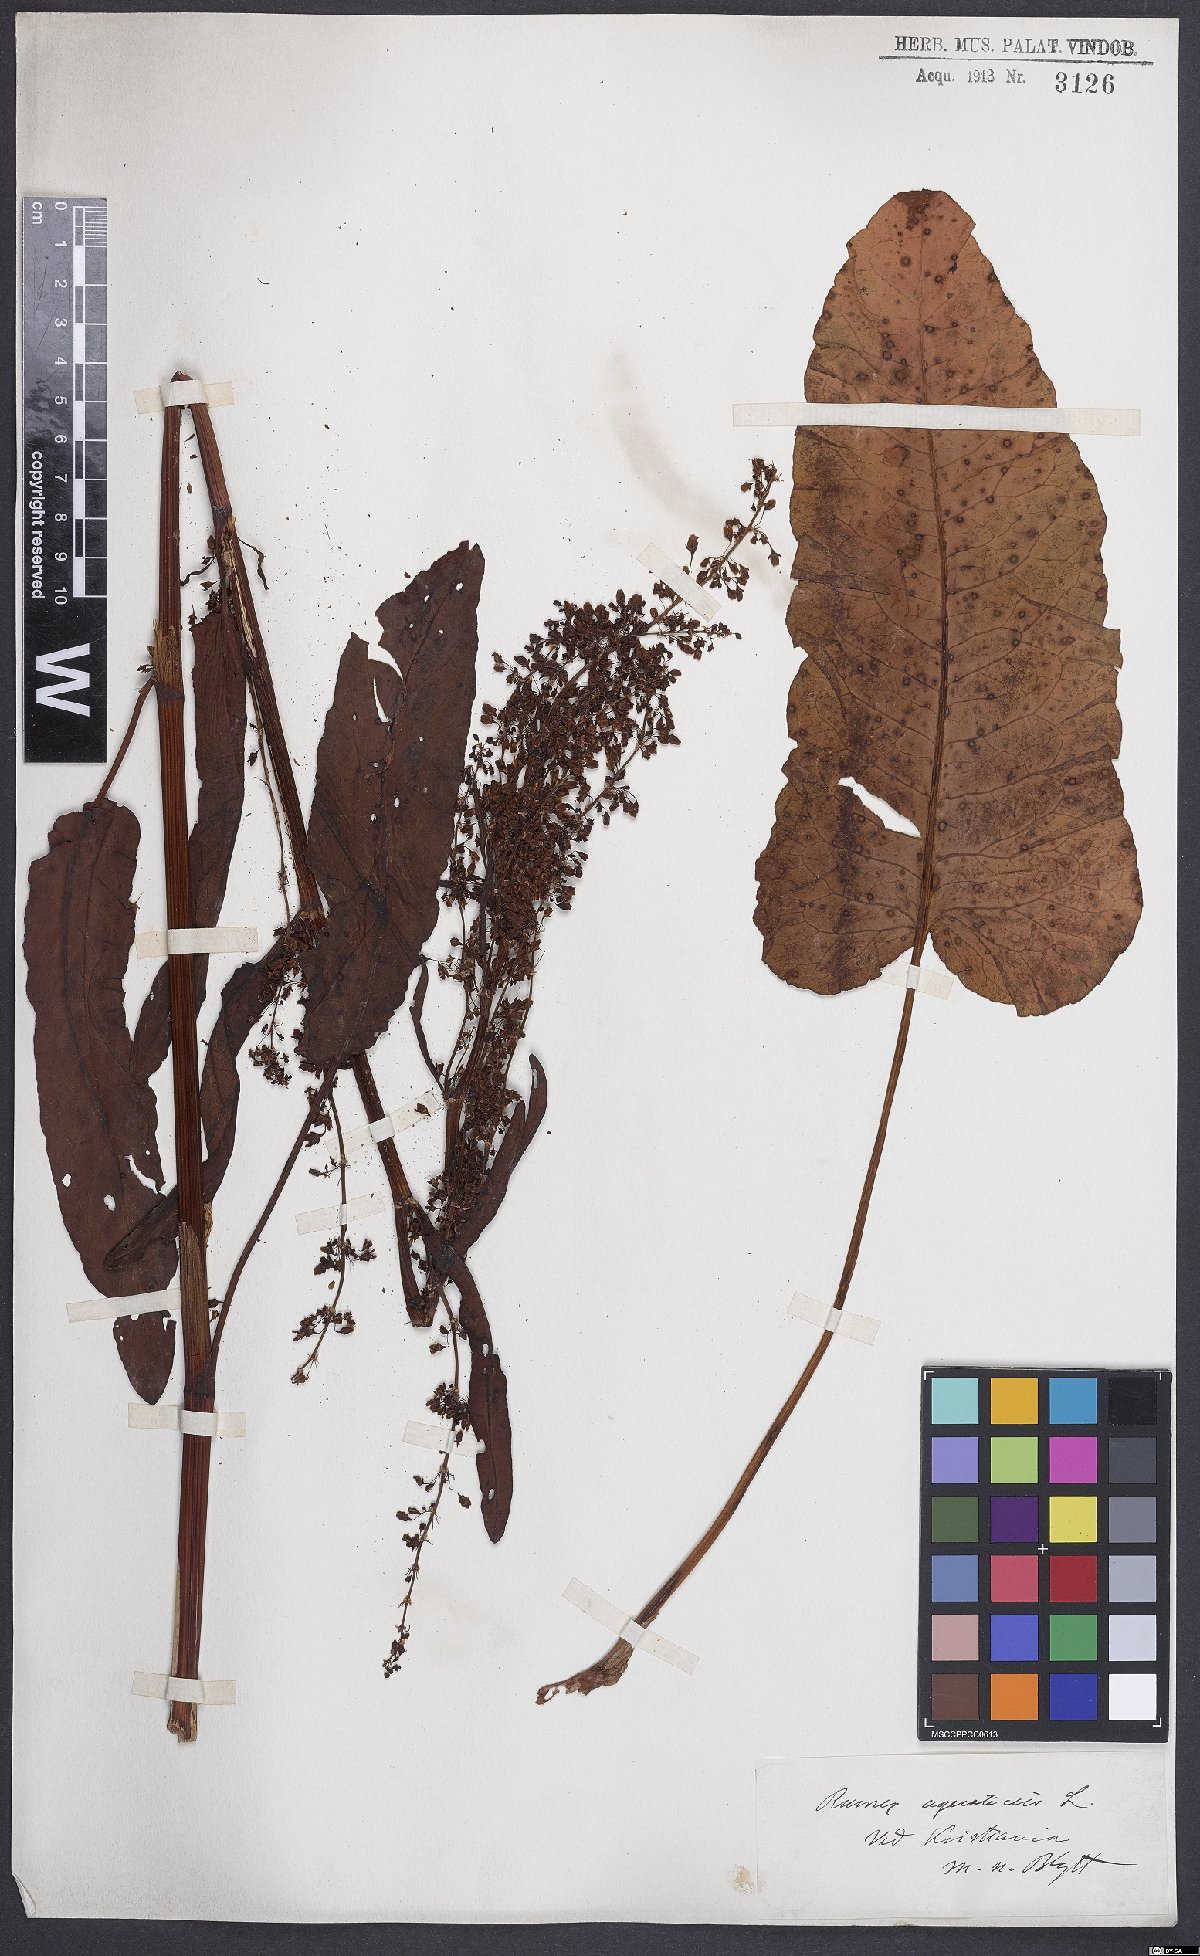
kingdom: Plantae
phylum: Tracheophyta
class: Magnoliopsida
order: Caryophyllales
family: Polygonaceae
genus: Rumex
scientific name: Rumex aquaticus
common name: Scottish dock
